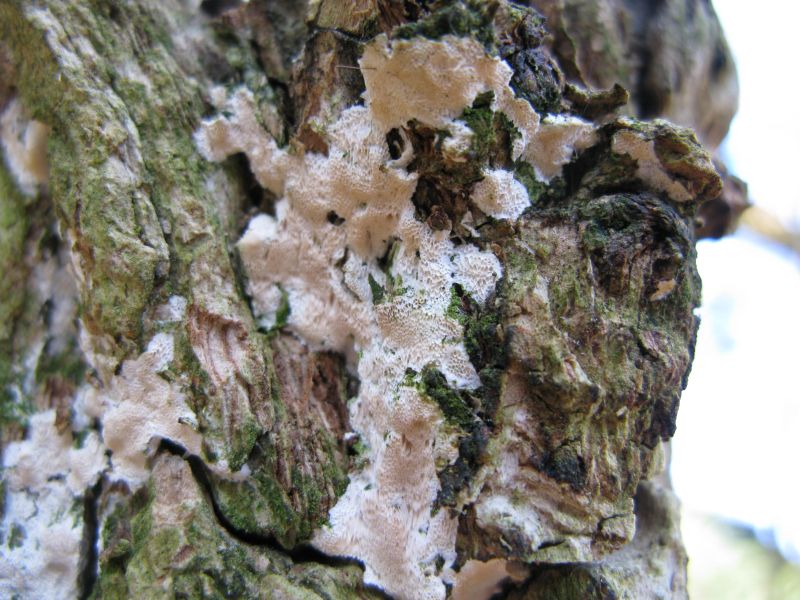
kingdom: Fungi
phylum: Basidiomycota
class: Agaricomycetes
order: Hymenochaetales
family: Oxyporaceae
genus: Oxyporus
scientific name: Oxyporus populinus
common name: sammenvokset trylleporesvamp
